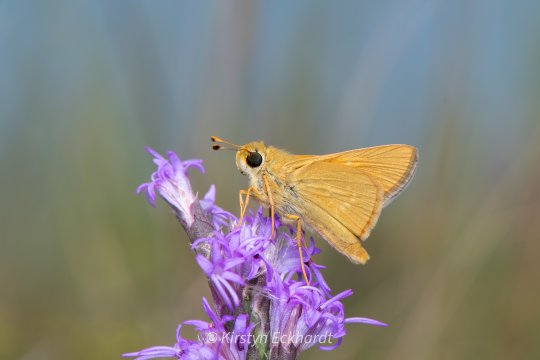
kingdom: Animalia
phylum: Arthropoda
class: Insecta
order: Lepidoptera
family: Hesperiidae
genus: Hesperia
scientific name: Hesperia leonardus
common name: Leonard's Skipper
